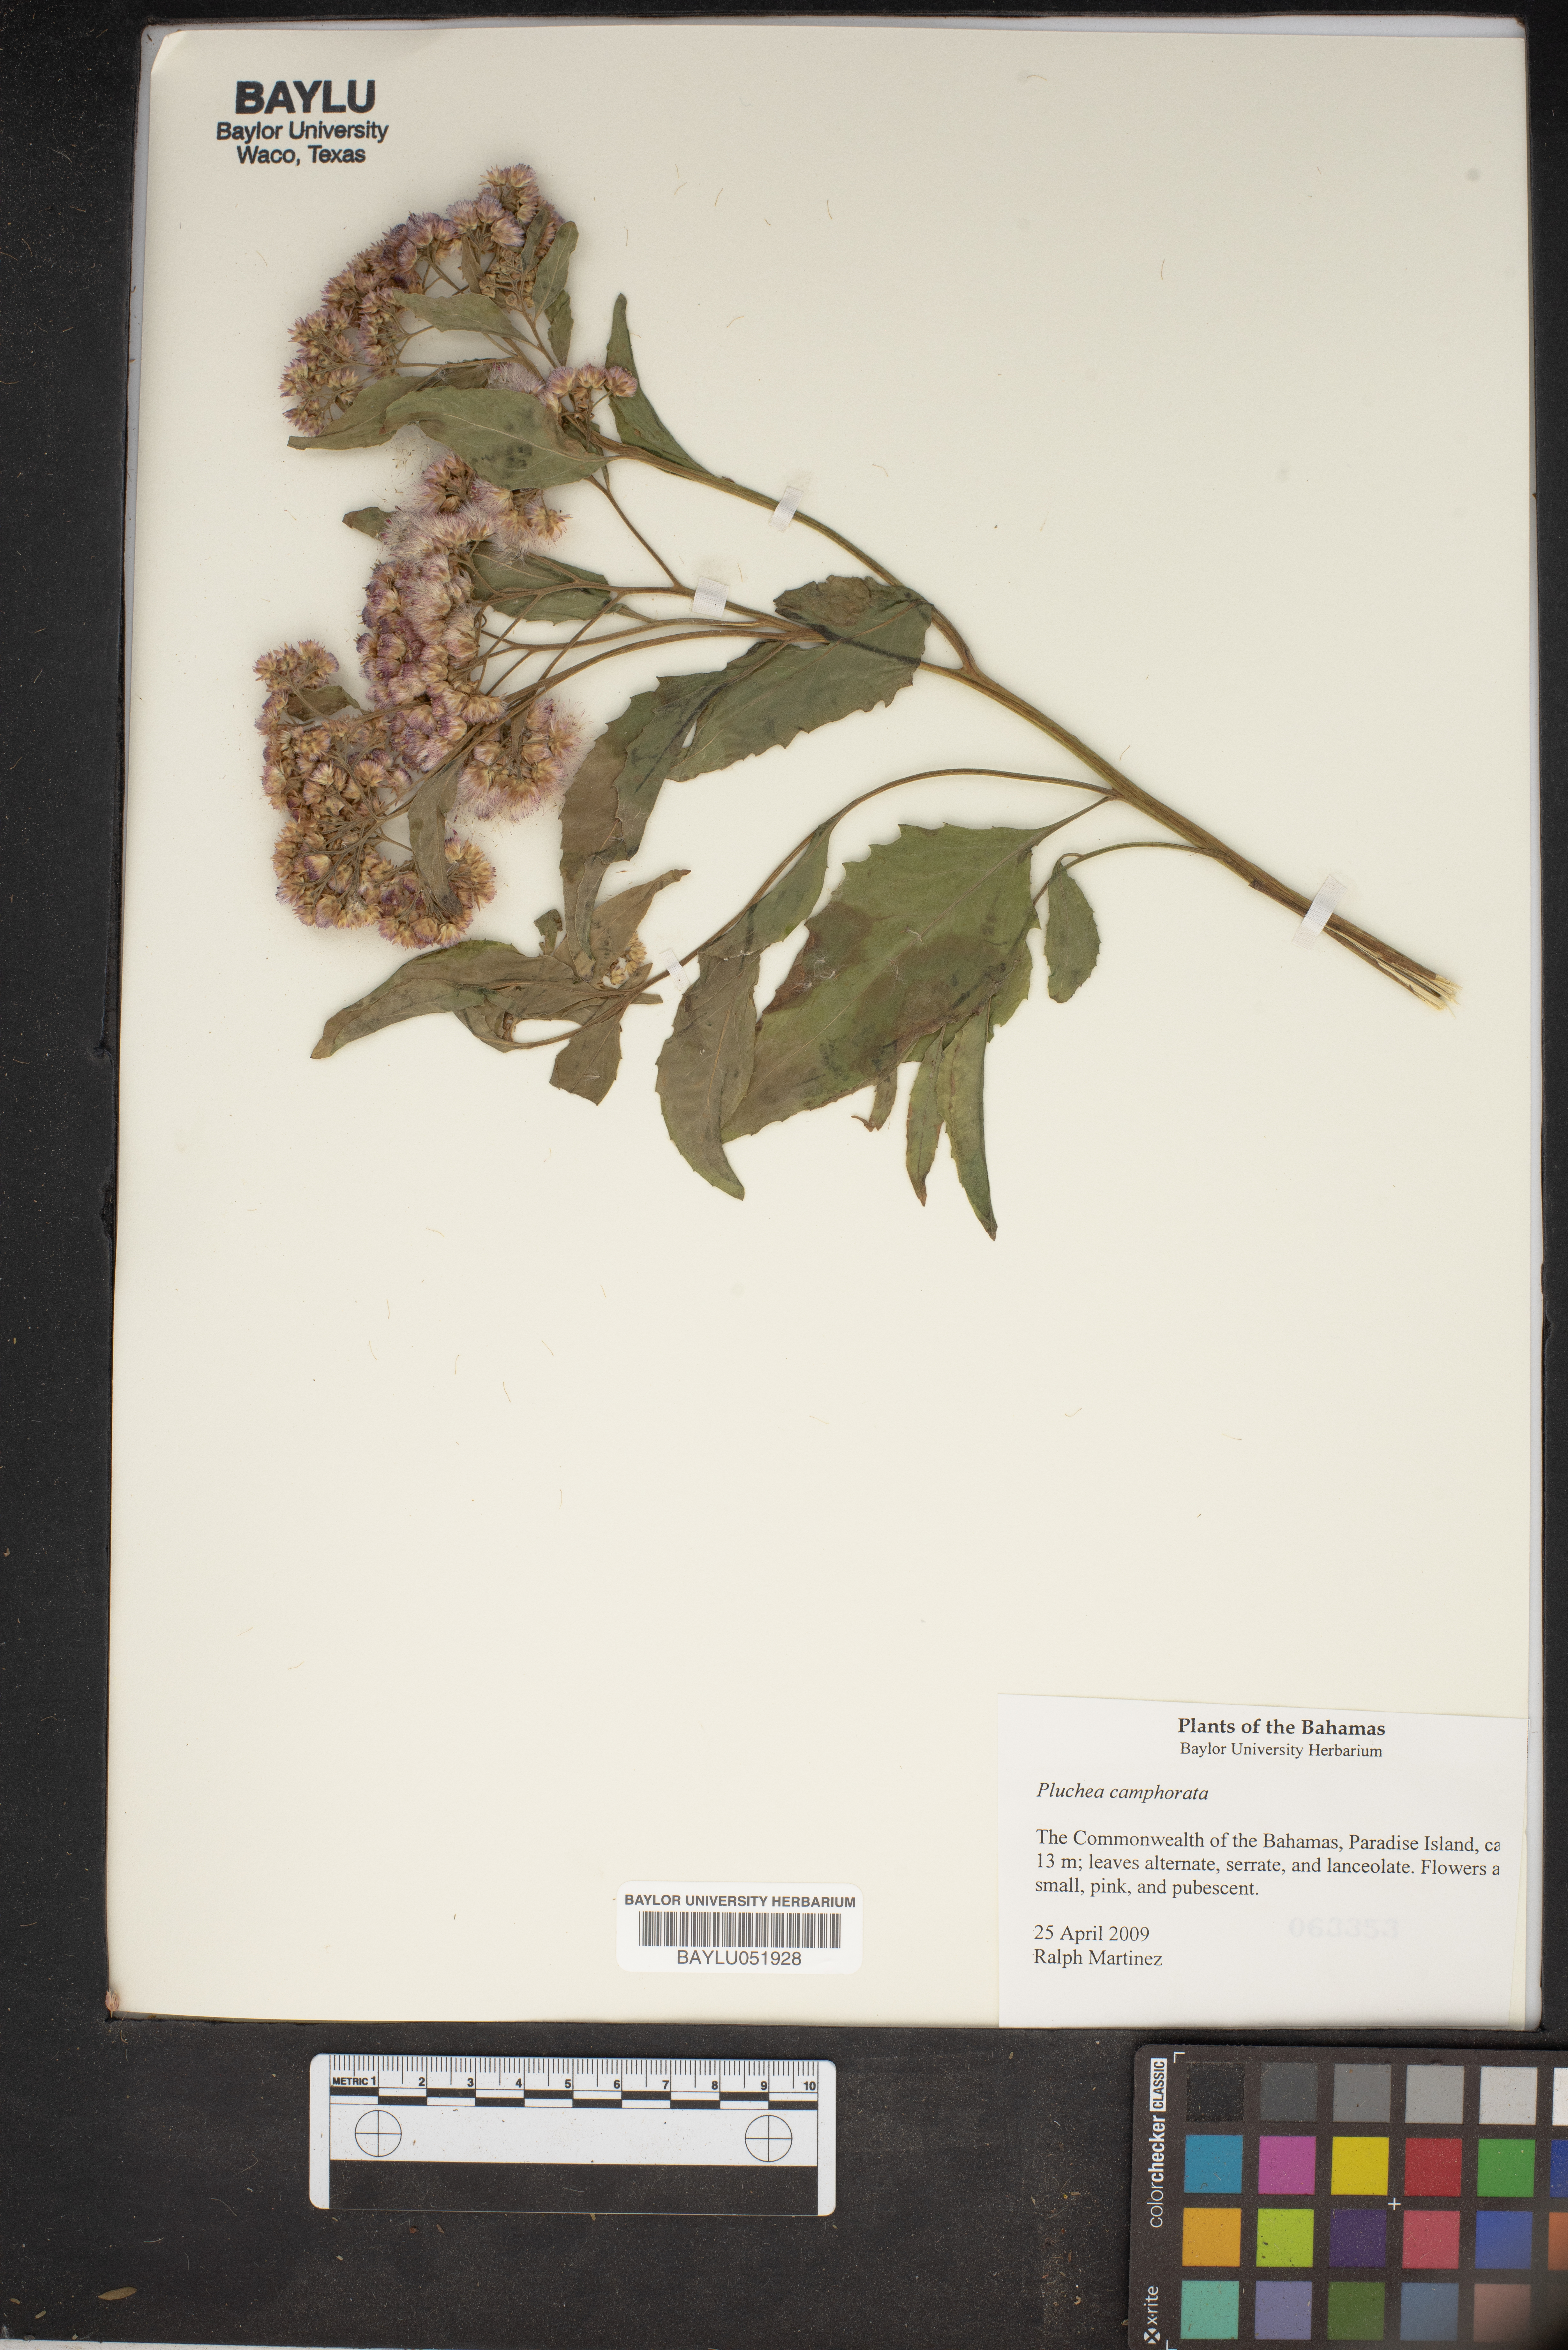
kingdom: Plantae
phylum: Tracheophyta
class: Magnoliopsida
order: Asterales
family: Asteraceae
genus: Pluchea
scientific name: Pluchea camphorata
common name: Camphor pluchea
